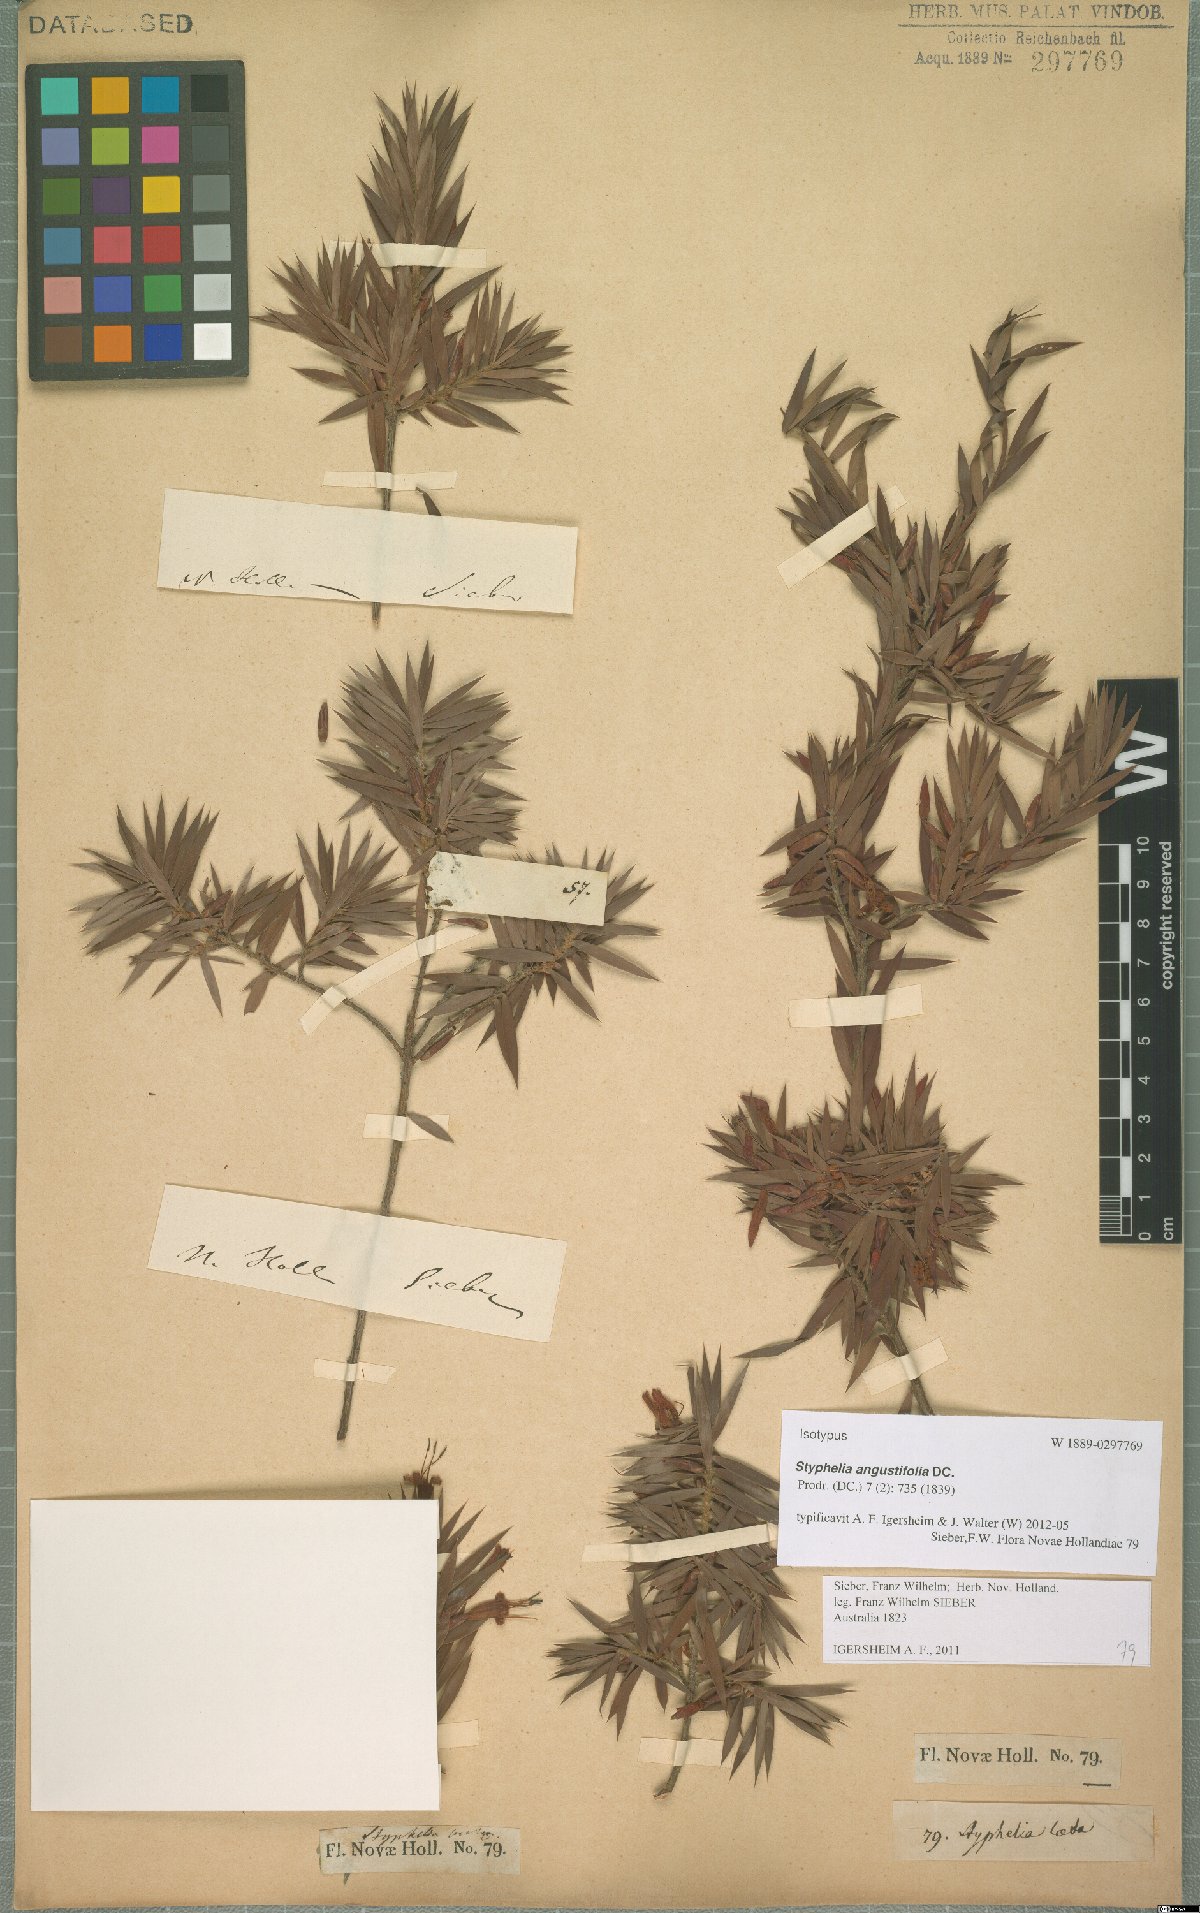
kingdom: Plantae
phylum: Tracheophyta
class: Magnoliopsida
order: Ericales
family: Ericaceae
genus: Styphelia
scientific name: Styphelia laeta
